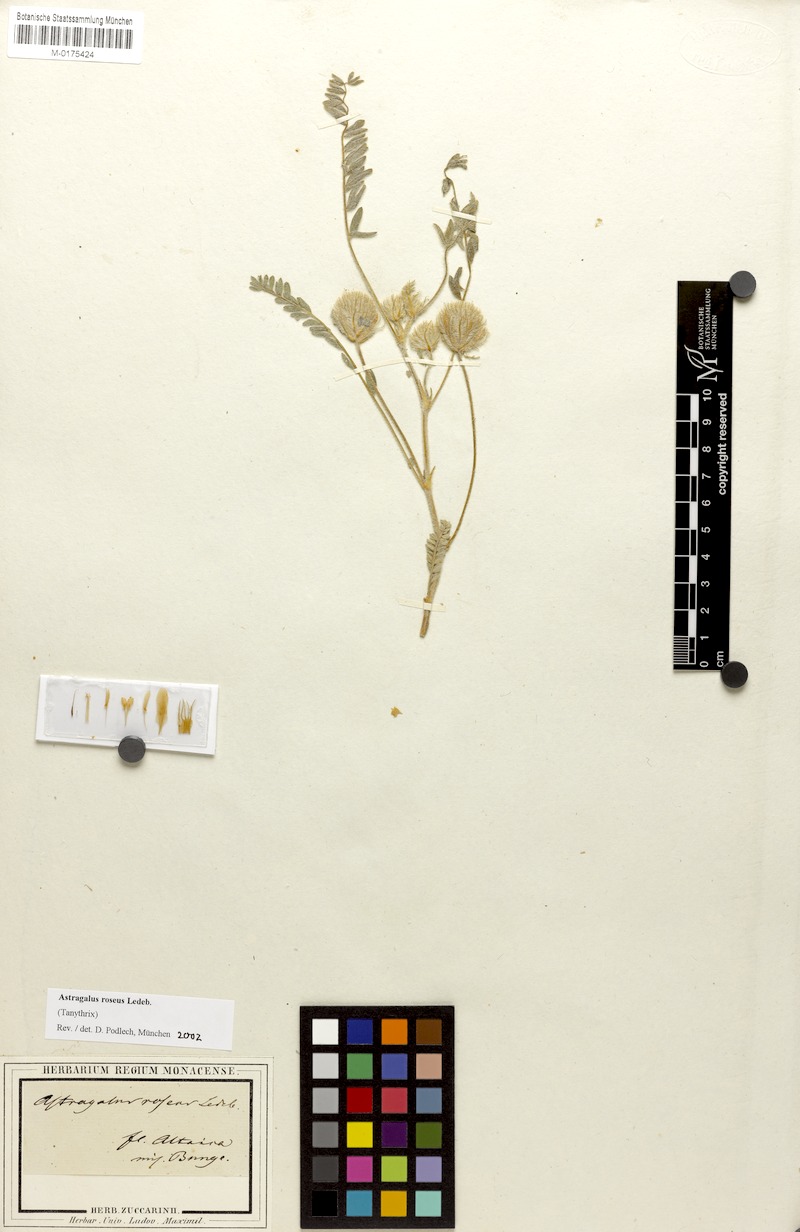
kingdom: Plantae
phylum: Tracheophyta
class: Magnoliopsida
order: Fabales
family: Fabaceae
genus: Astragalus
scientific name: Astragalus roseus
